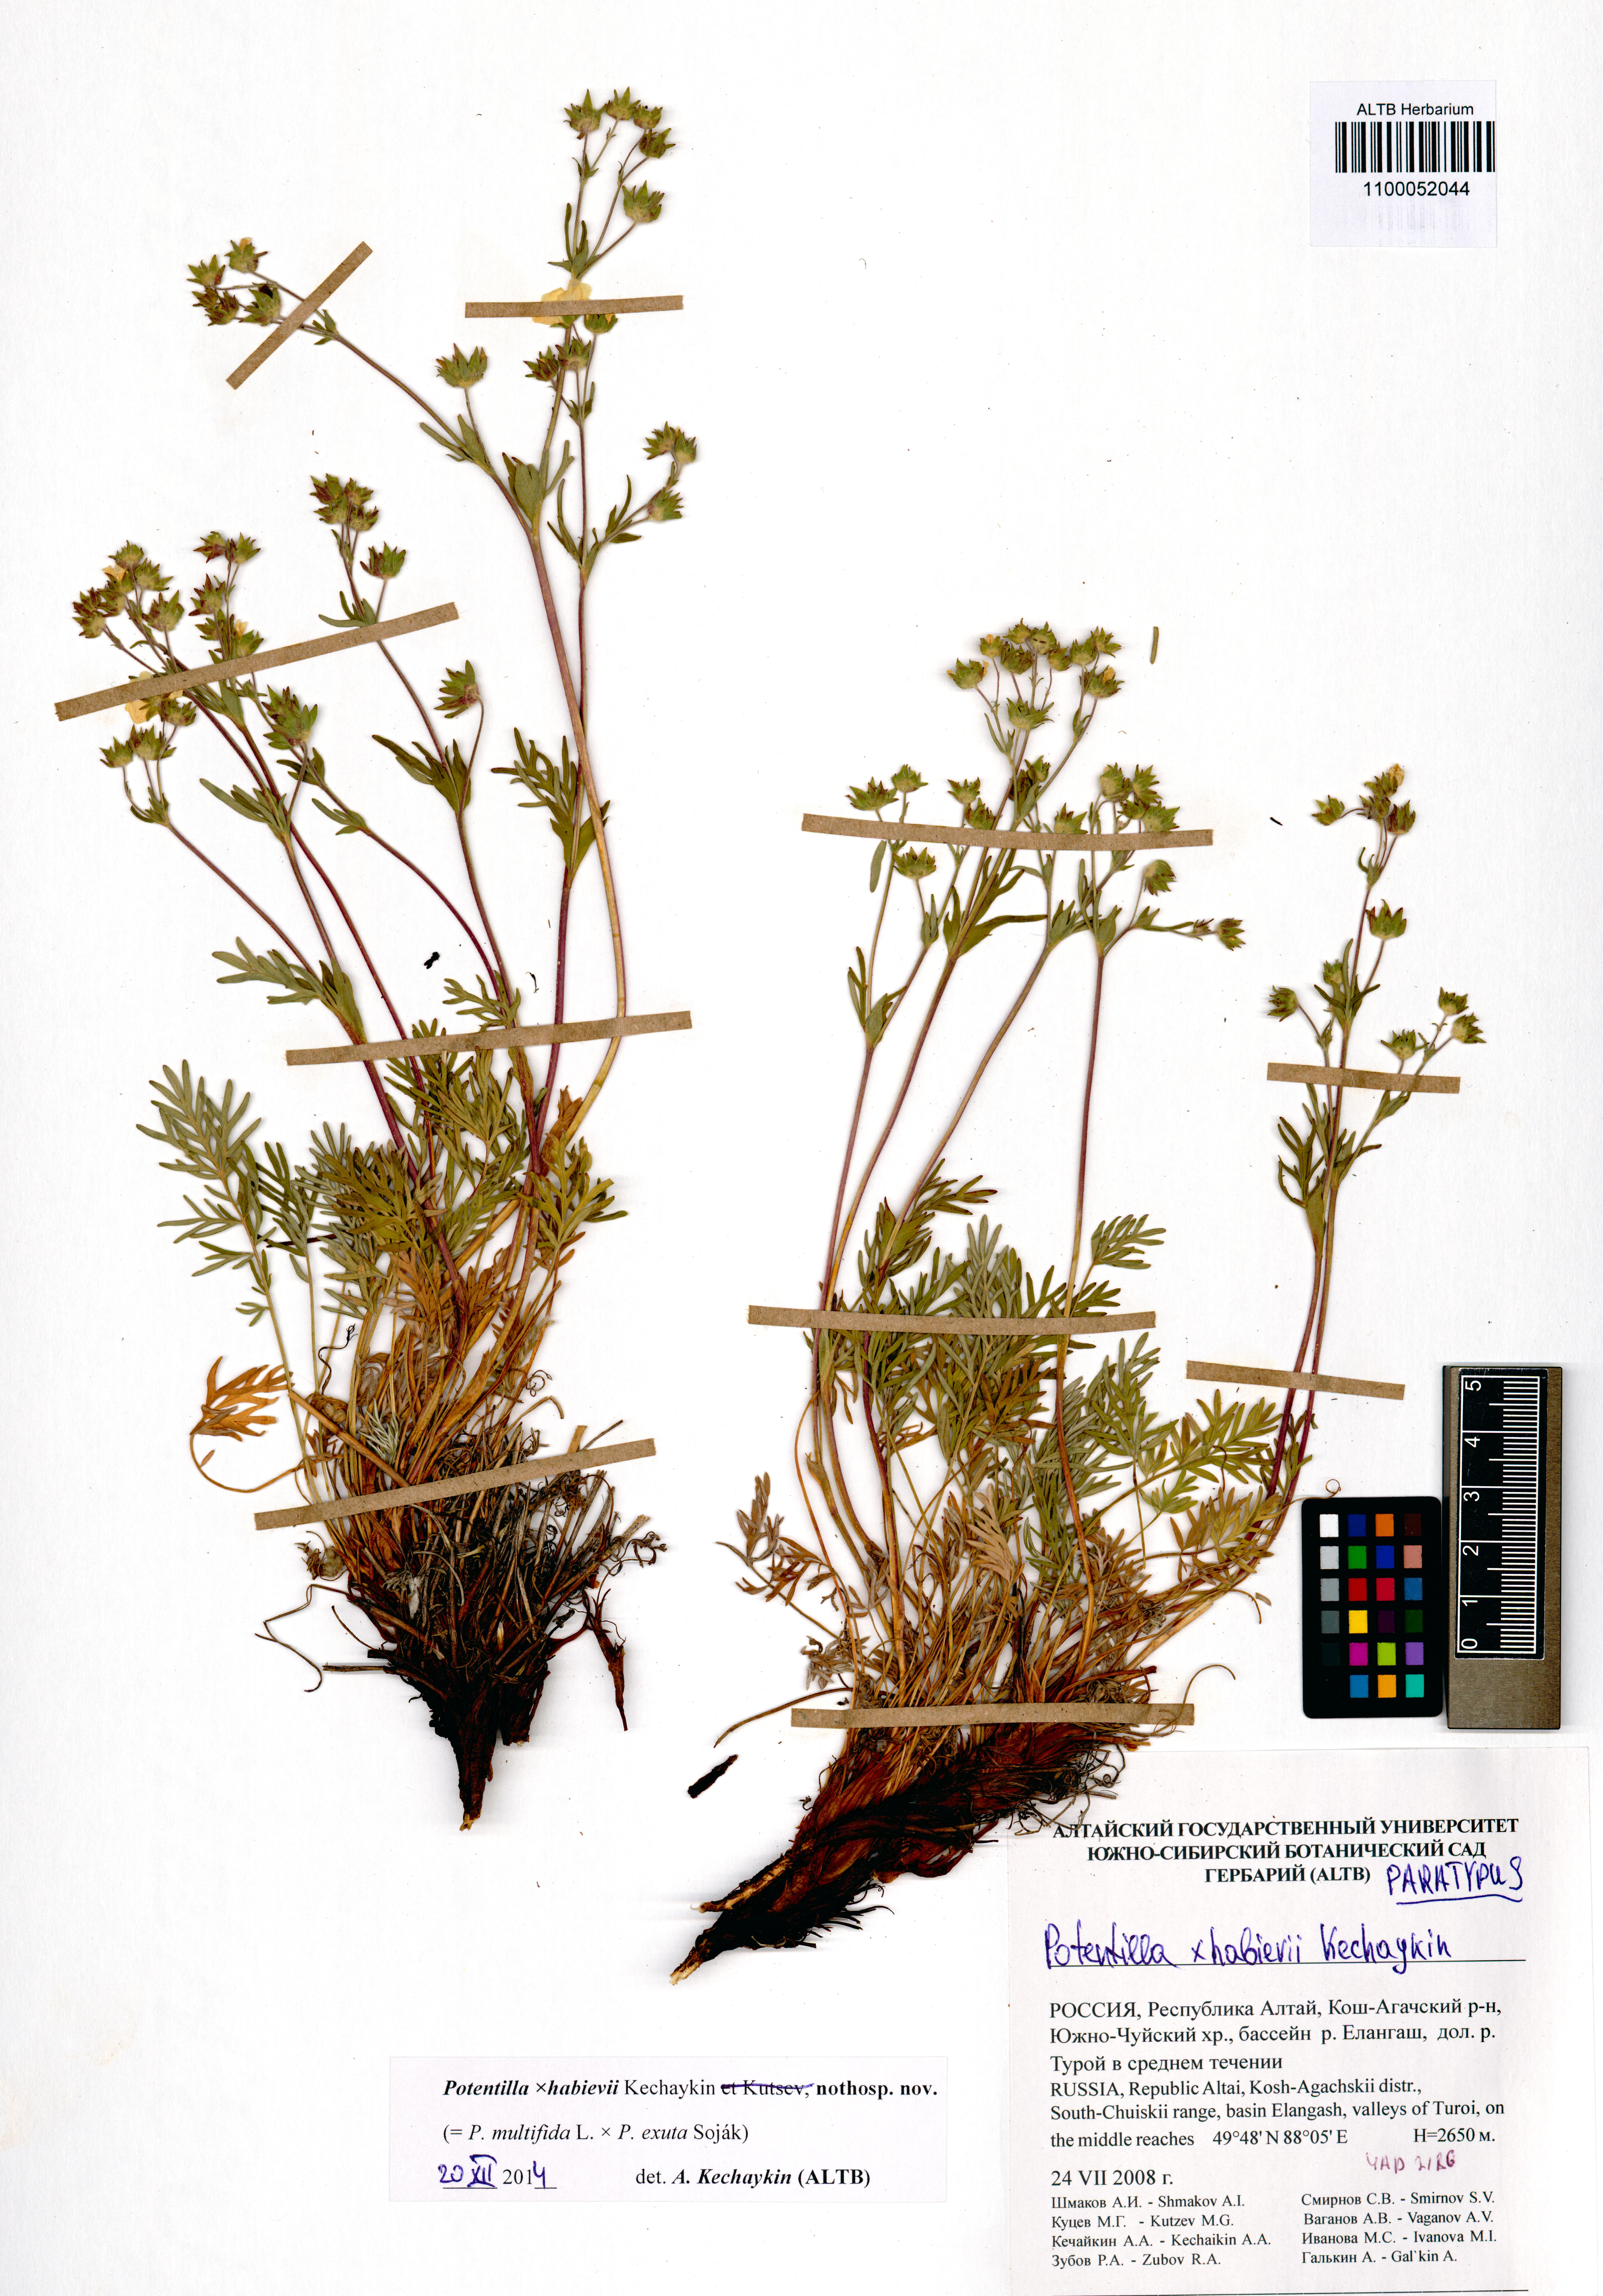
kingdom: Plantae
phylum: Tracheophyta
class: Magnoliopsida
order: Rosales
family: Rosaceae
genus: Potentilla
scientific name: Potentilla habievii
